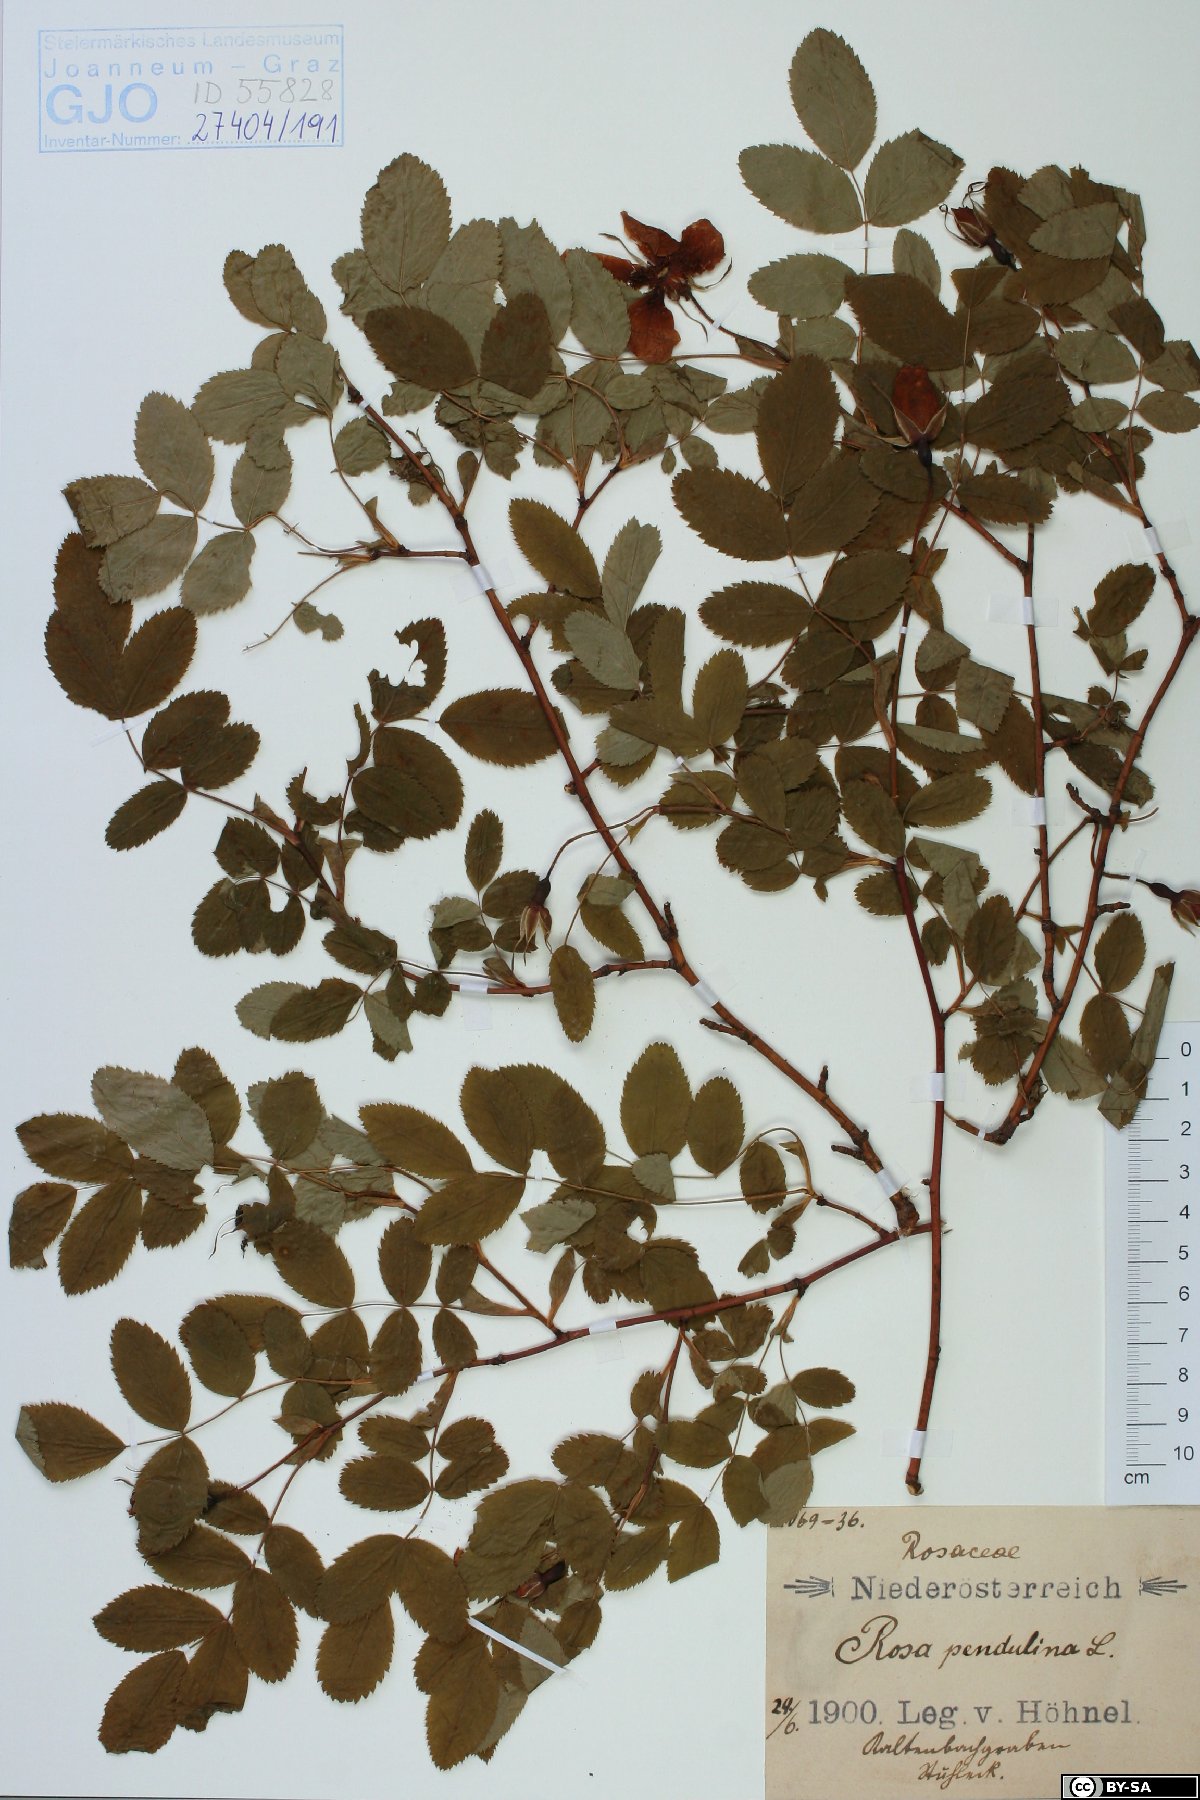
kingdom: Plantae
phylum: Tracheophyta
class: Magnoliopsida
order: Rosales
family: Rosaceae
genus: Rosa
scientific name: Rosa pendulina
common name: Alpine rose
